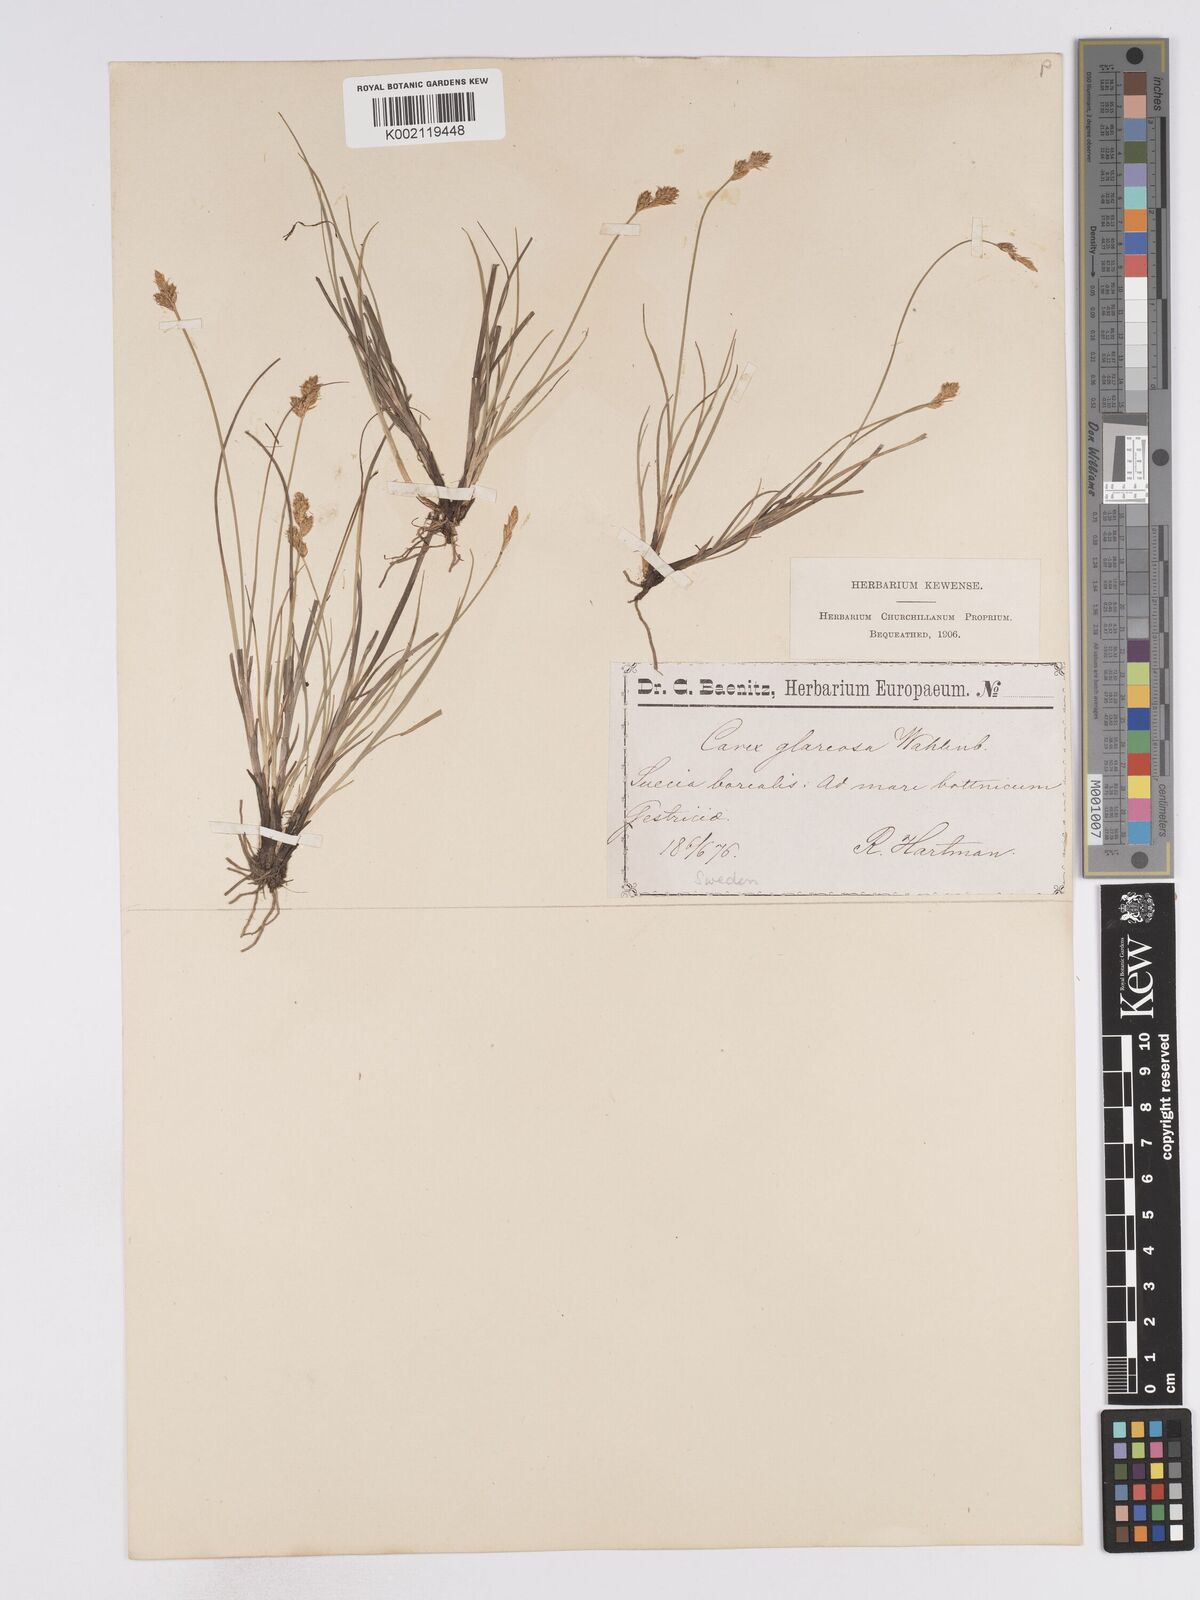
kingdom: Plantae
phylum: Tracheophyta
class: Liliopsida
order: Poales
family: Cyperaceae
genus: Carex
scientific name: Carex glareosa
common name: Clustered sedge
